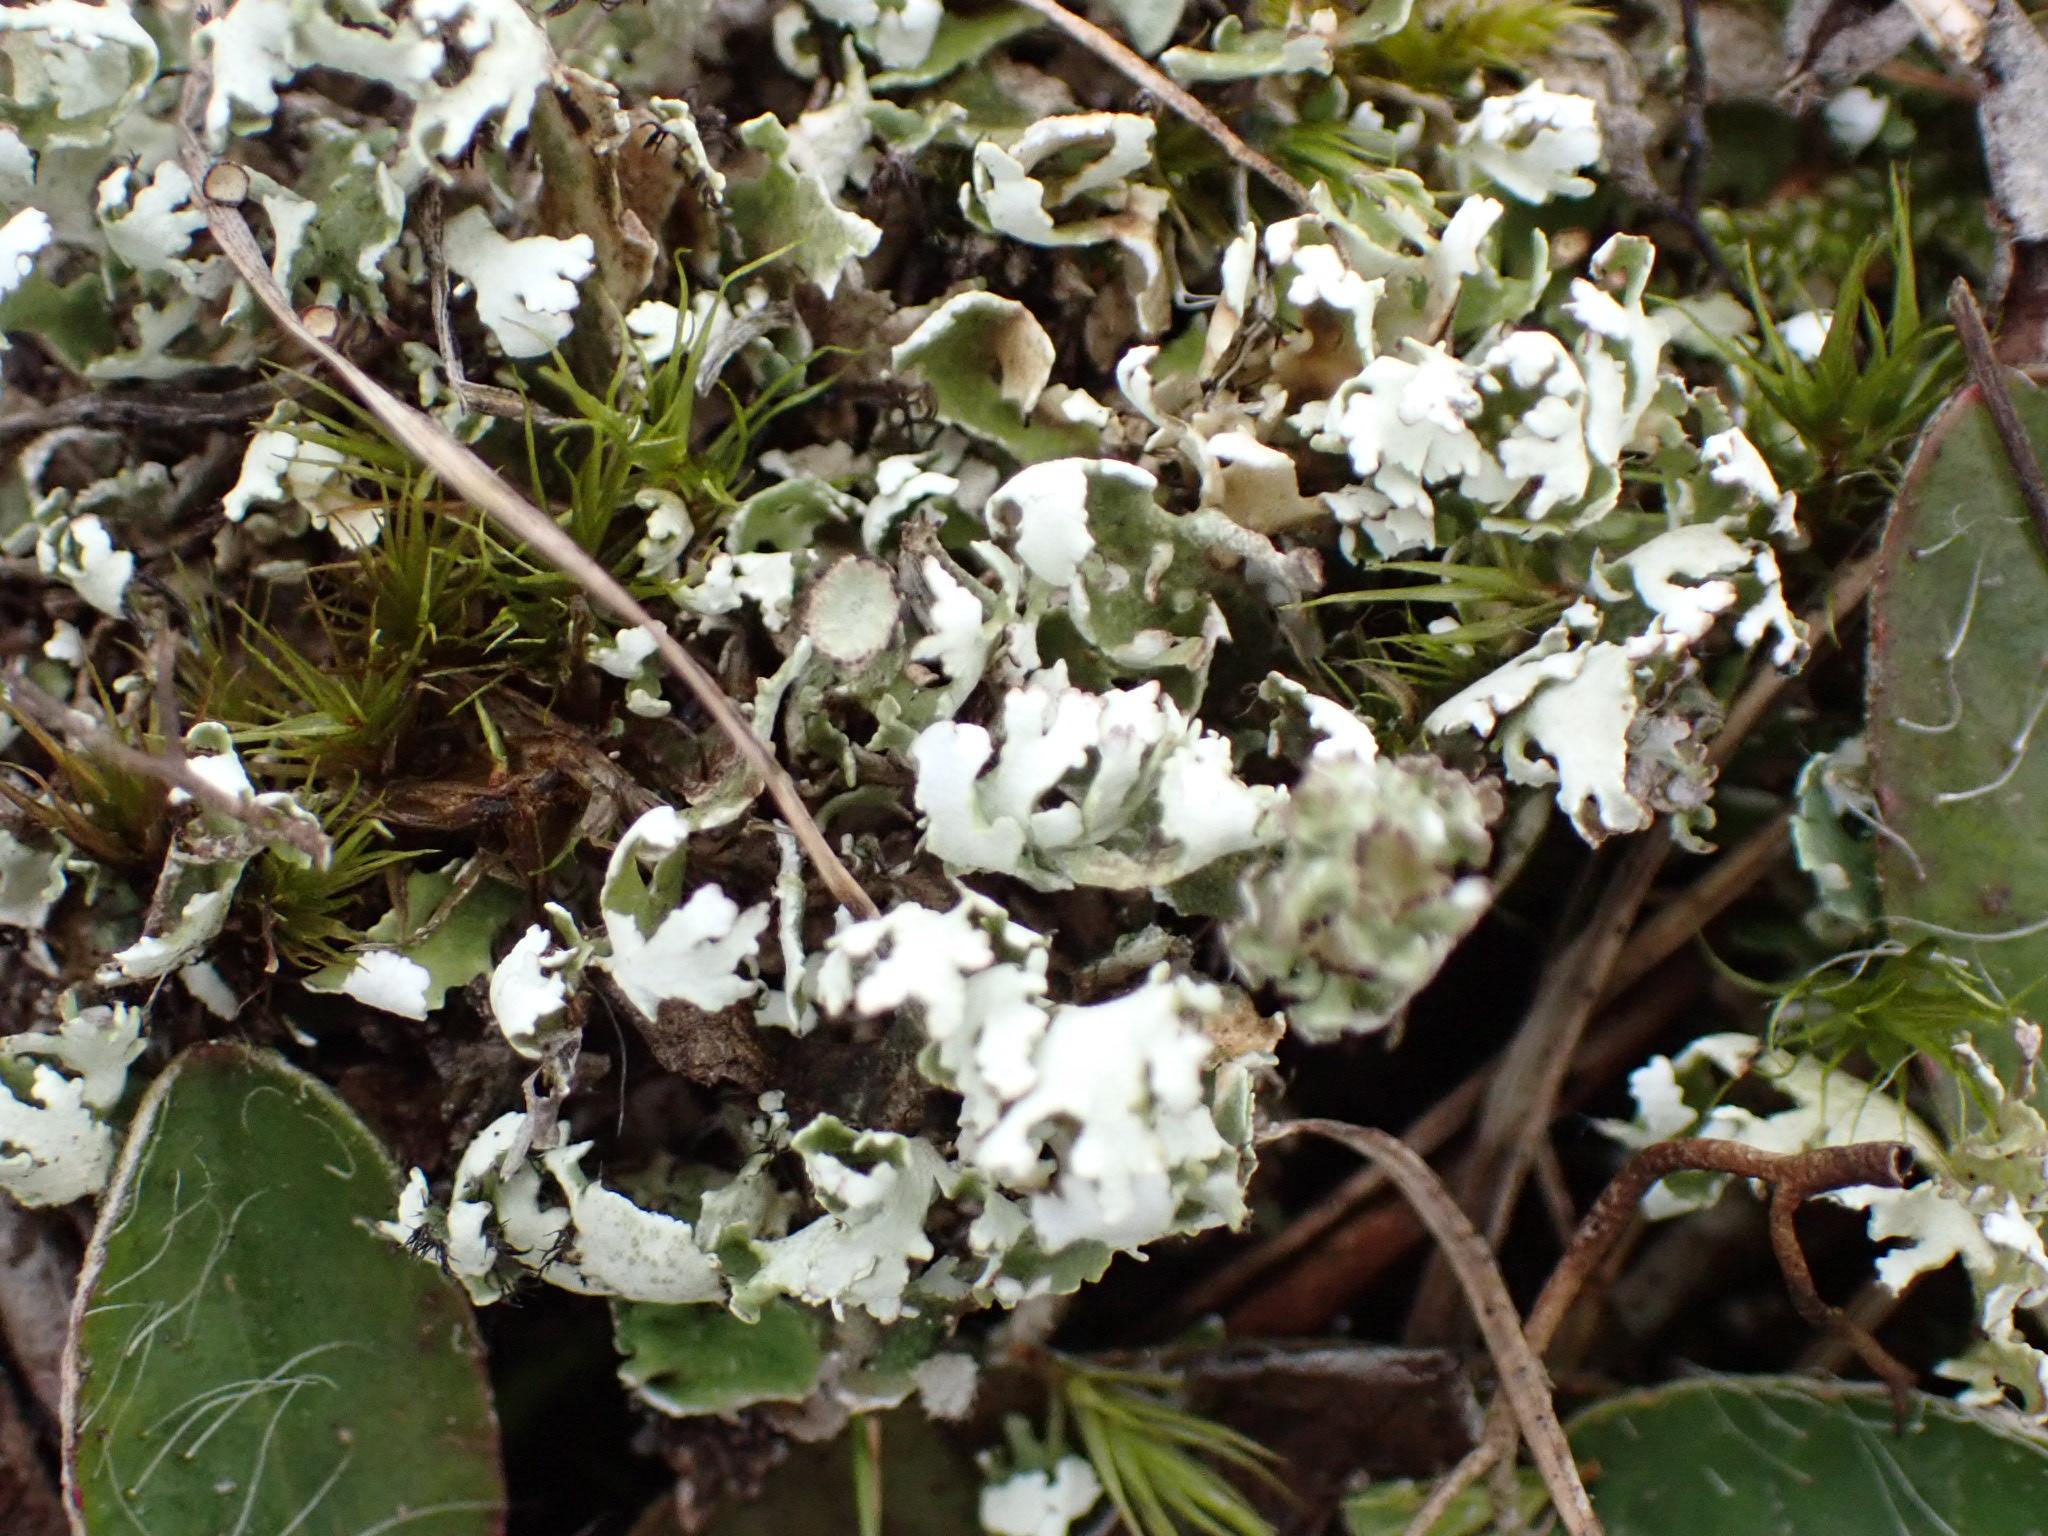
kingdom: Fungi
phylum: Ascomycota
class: Lecanoromycetes
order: Lecanorales
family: Cladoniaceae
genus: Cladonia
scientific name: Cladonia foliacea
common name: fliget bægerlav
